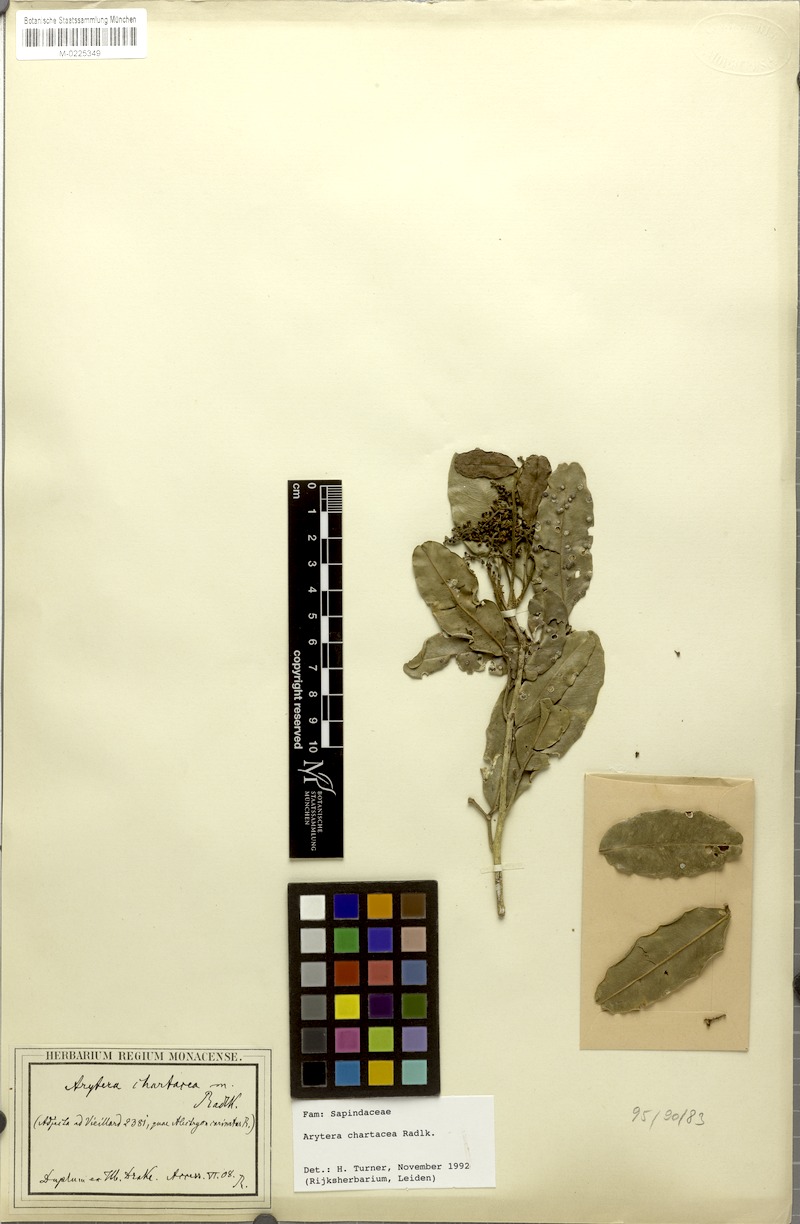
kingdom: Plantae
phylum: Tracheophyta
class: Magnoliopsida
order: Sapindales
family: Sapindaceae
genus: Neoarytera
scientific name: Neoarytera chartacea
